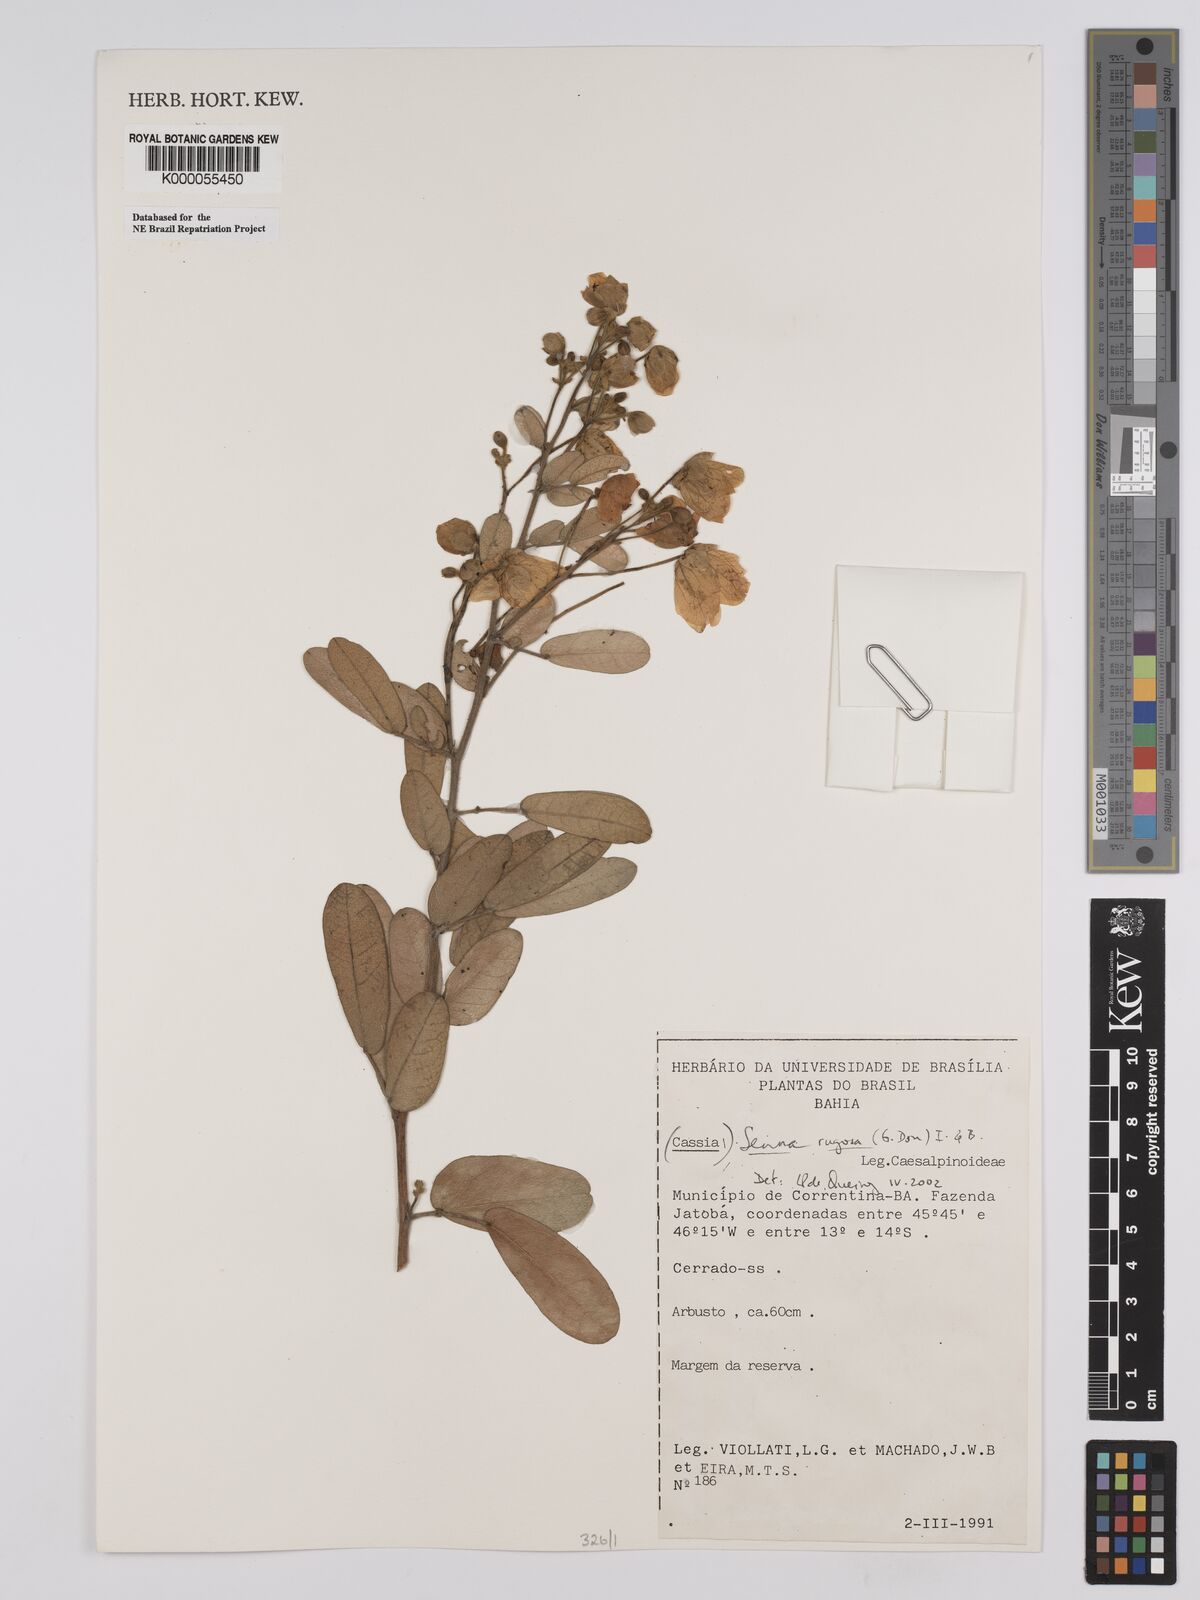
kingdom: Plantae
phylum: Tracheophyta
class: Magnoliopsida
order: Fabales
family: Fabaceae
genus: Senna
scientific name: Senna rugosa
